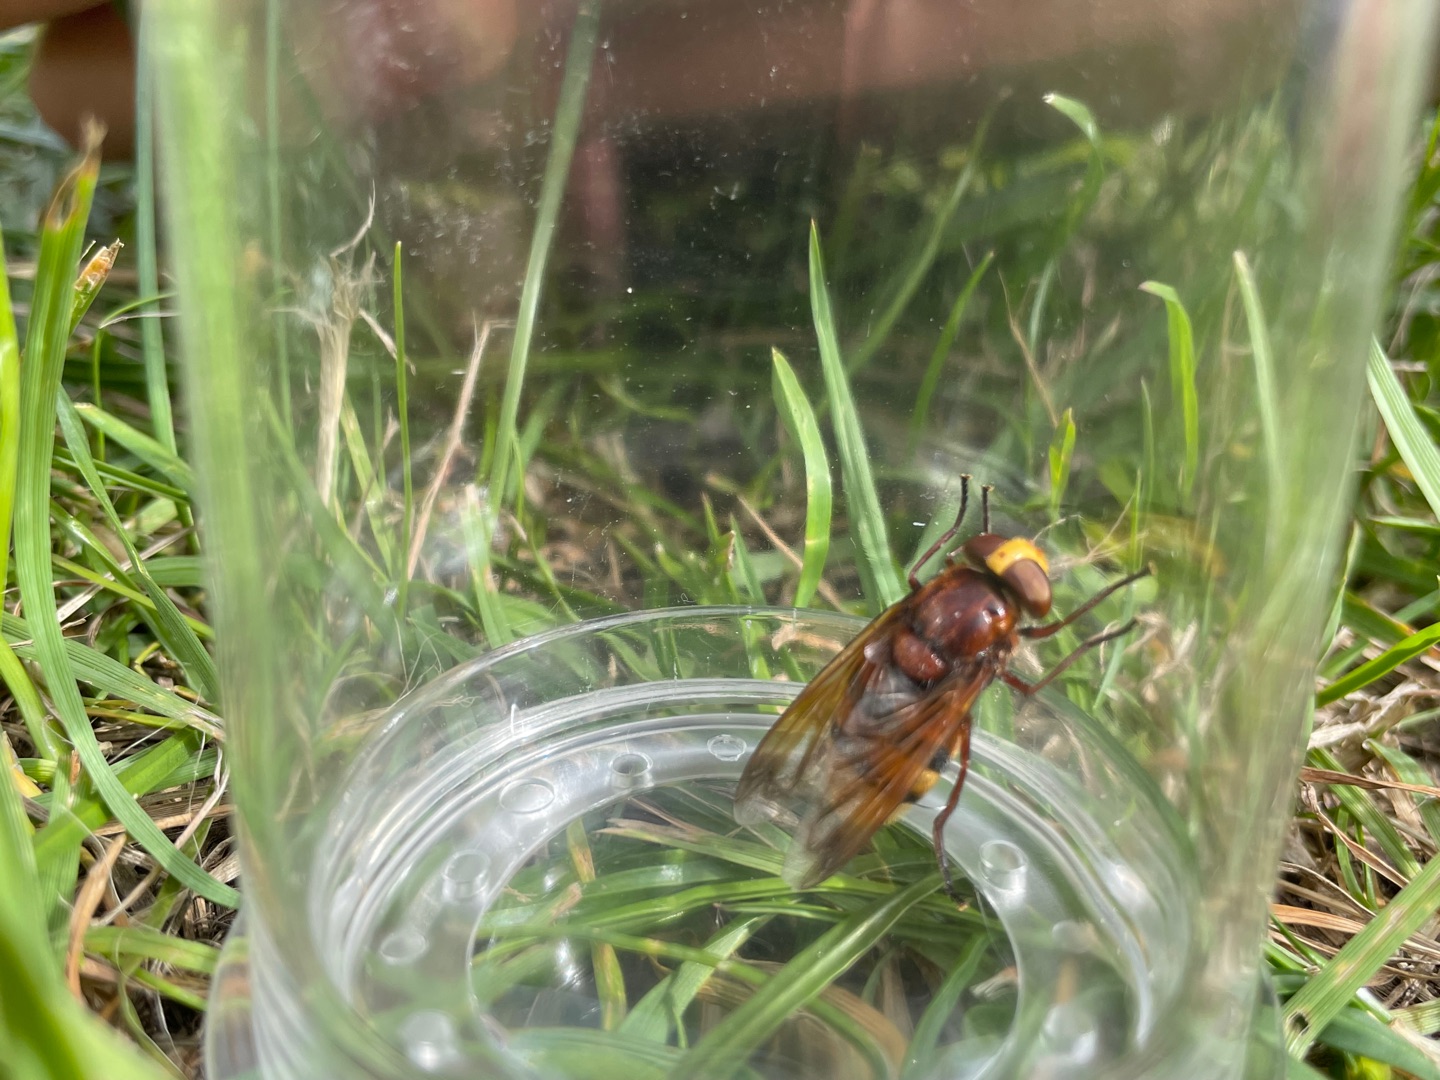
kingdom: Animalia
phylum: Arthropoda
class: Insecta
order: Diptera
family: Syrphidae
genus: Volucella
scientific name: Volucella zonaria
